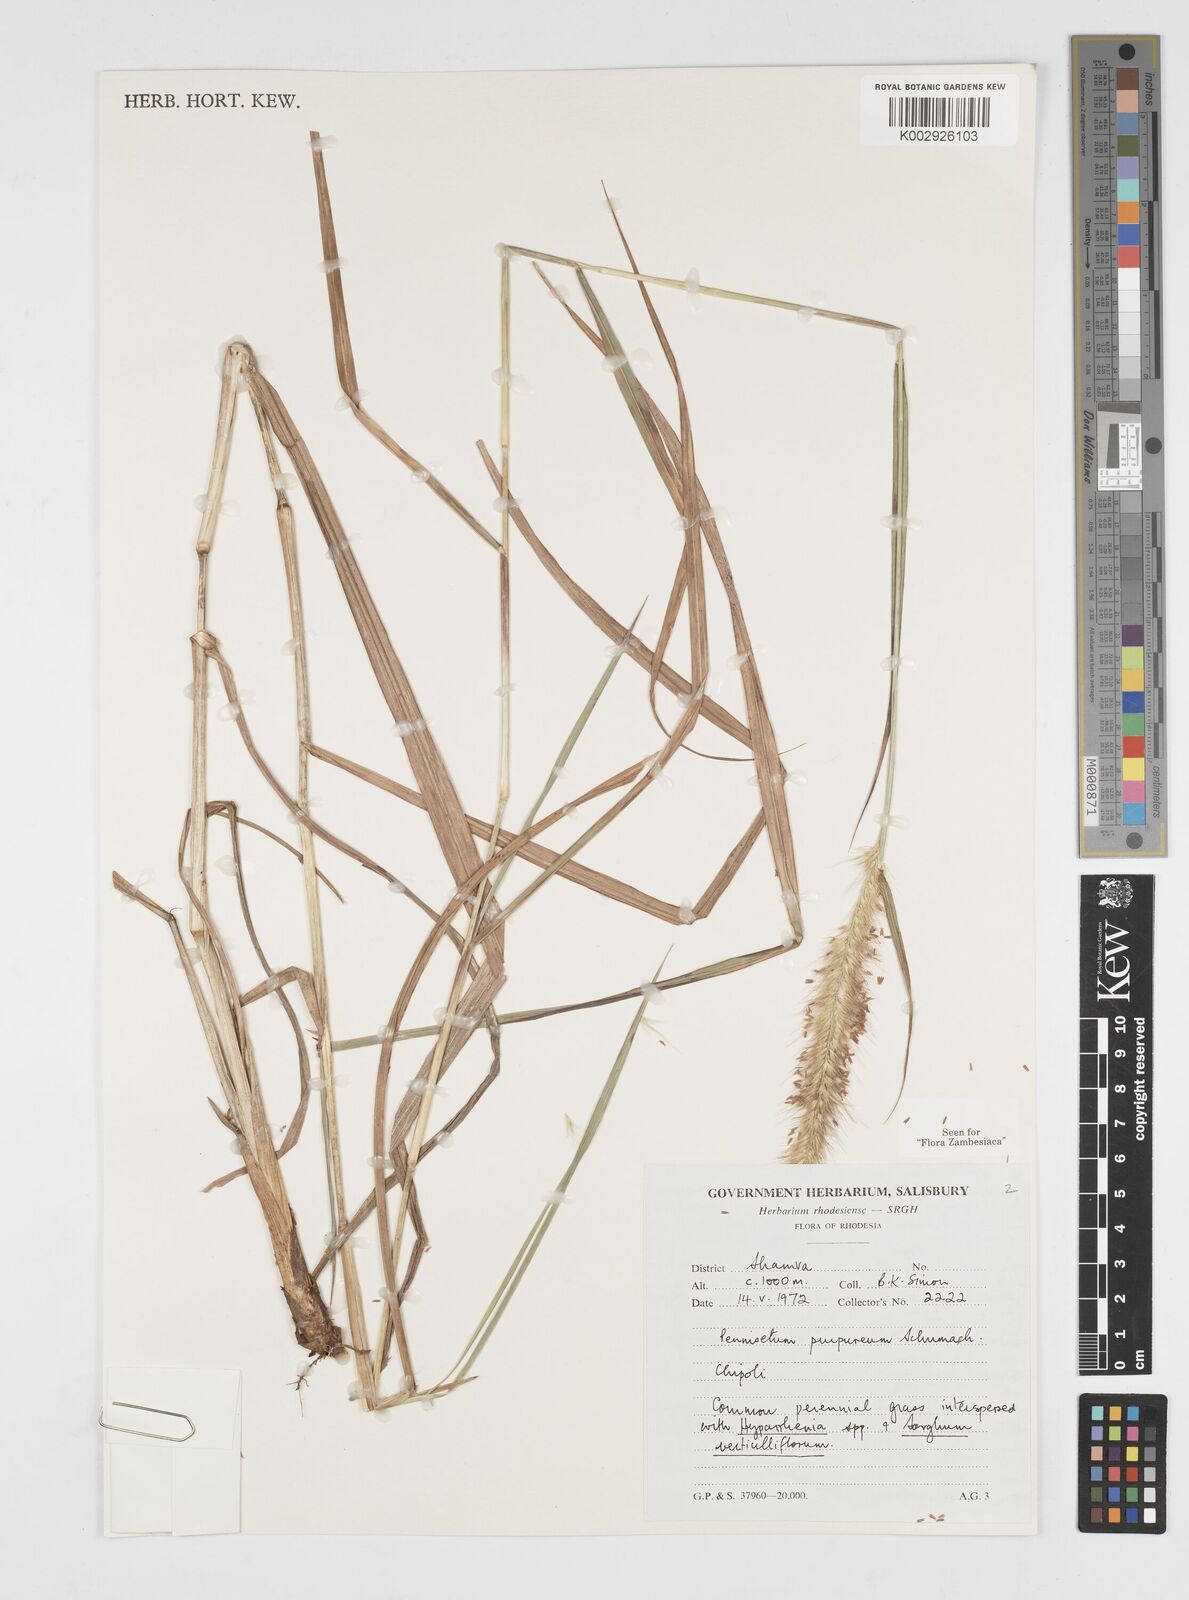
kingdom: Plantae
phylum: Tracheophyta
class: Liliopsida
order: Poales
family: Poaceae
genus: Cenchrus
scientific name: Cenchrus purpureus
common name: Elephant grass
